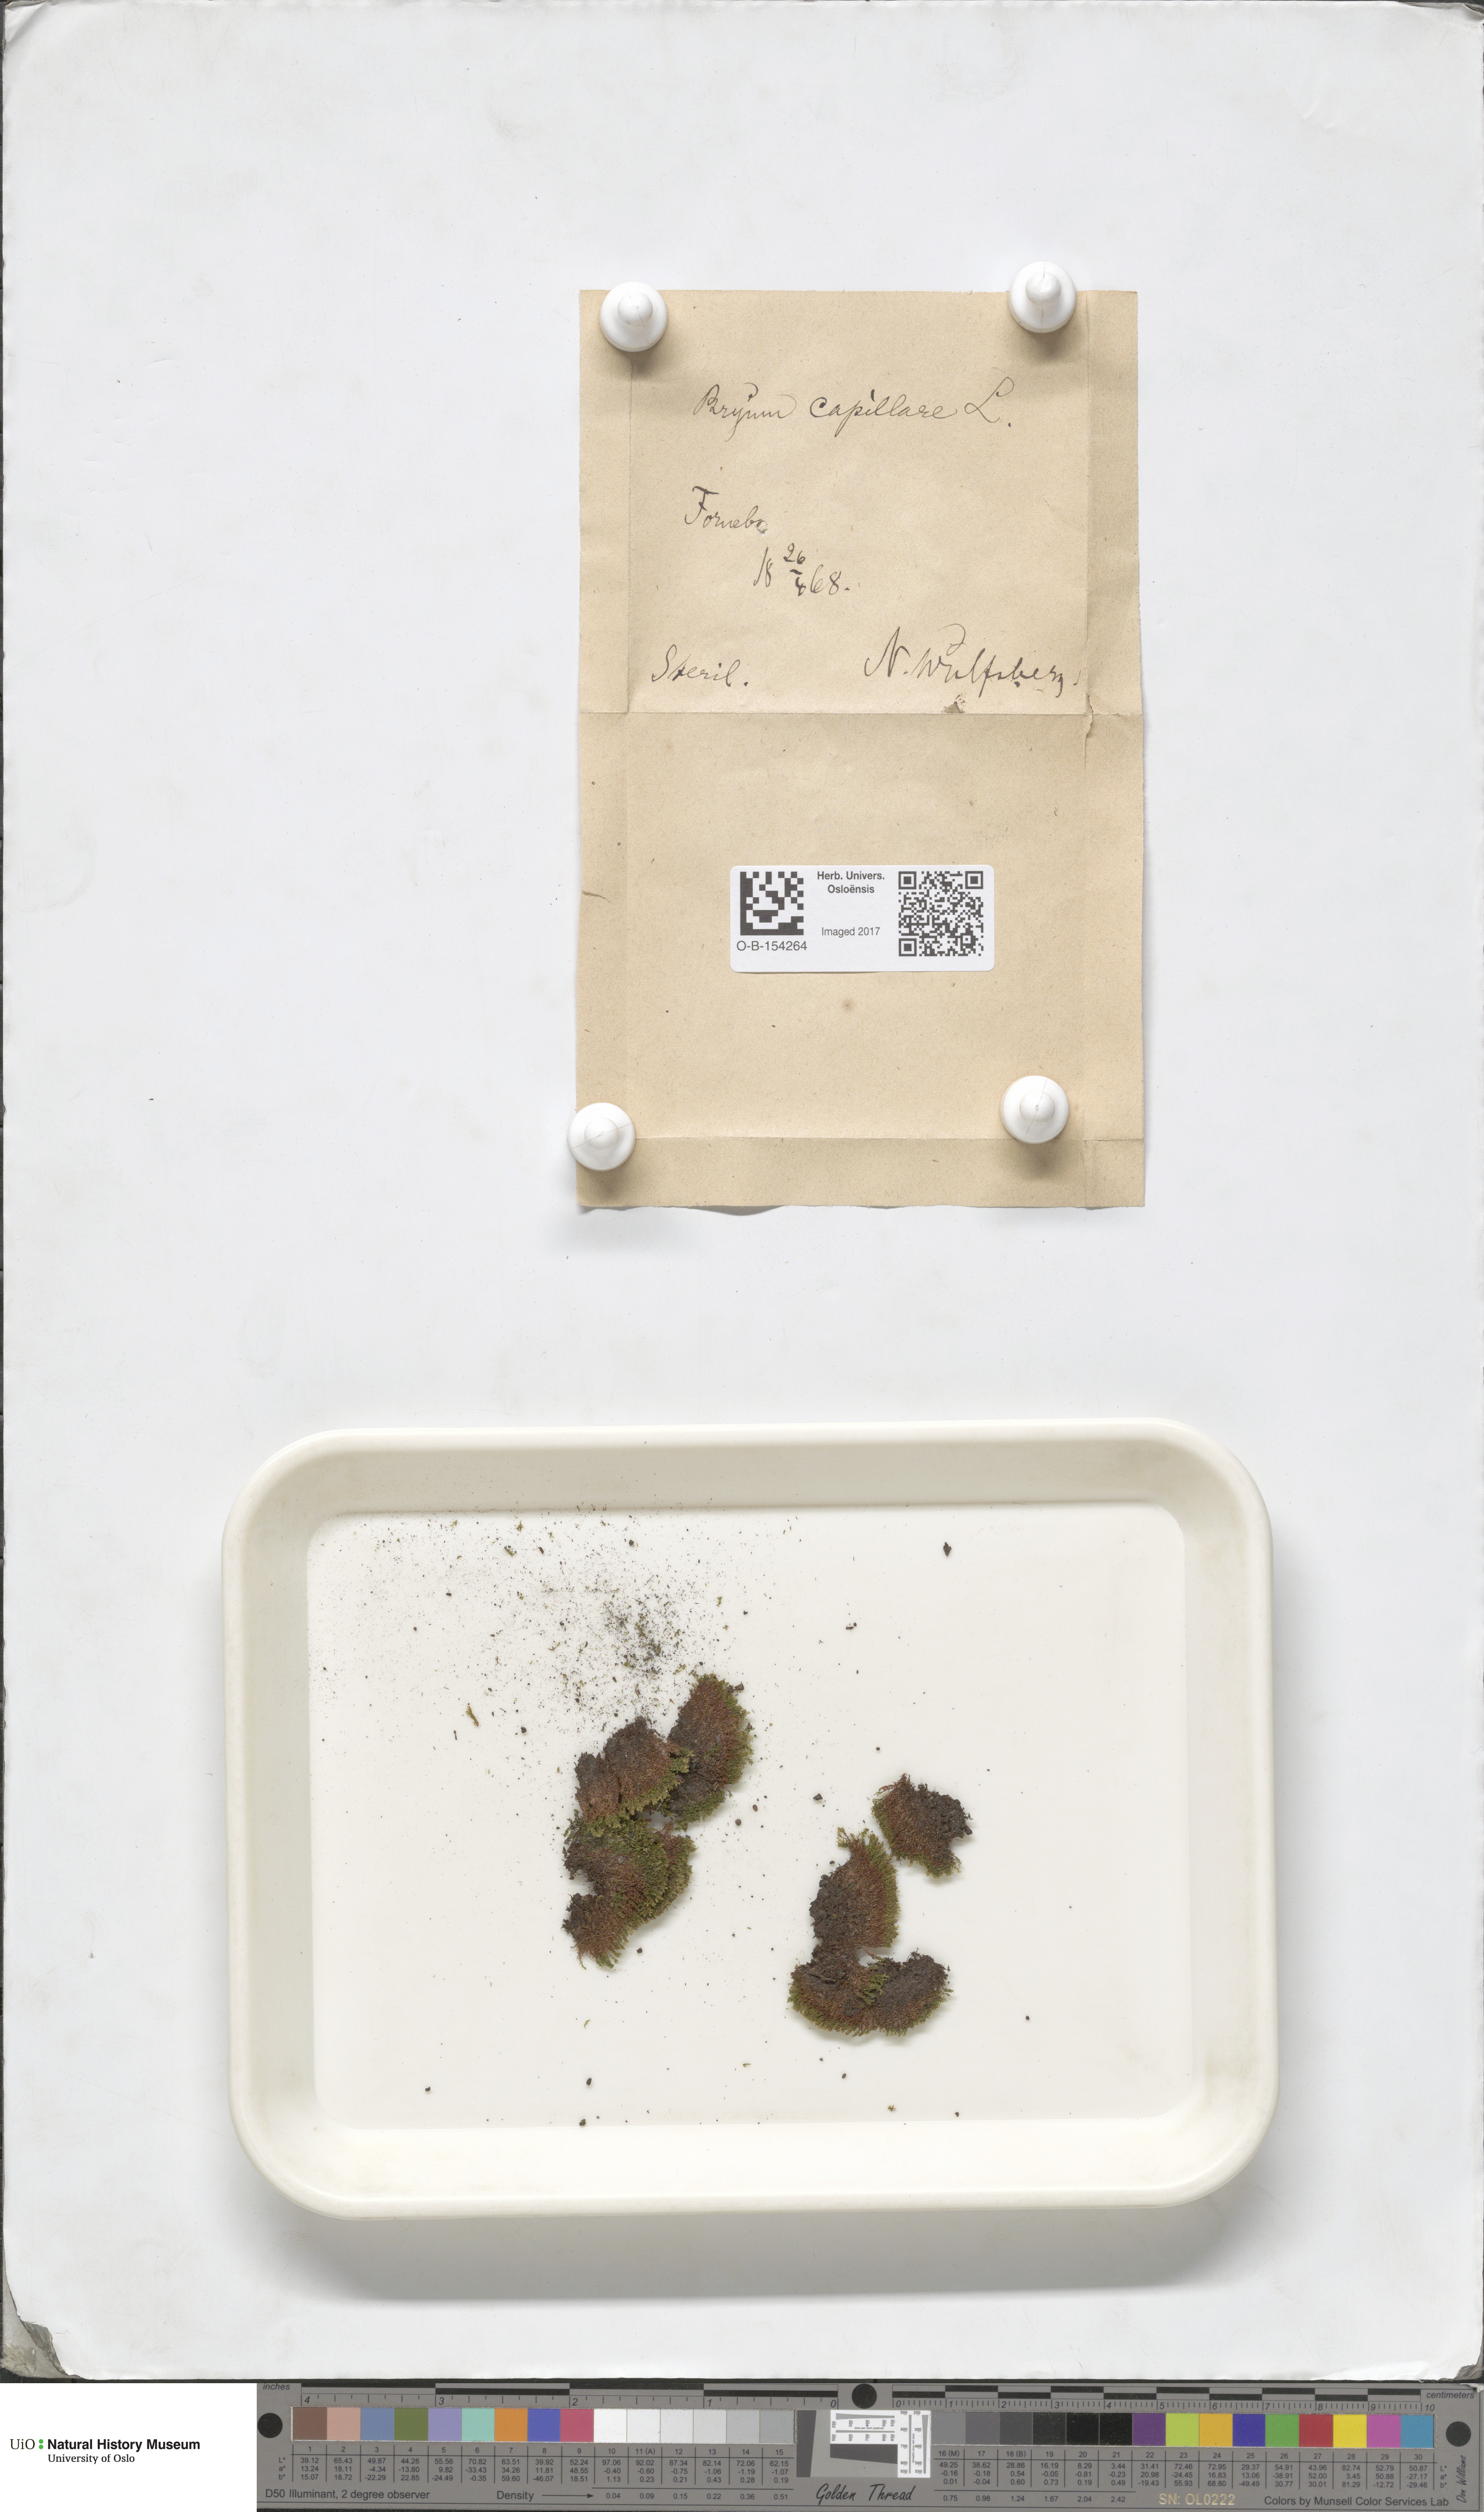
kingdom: Plantae
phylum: Bryophyta
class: Bryopsida
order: Bryales
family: Bryaceae
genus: Rosulabryum
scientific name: Rosulabryum capillare
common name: Capillary thread-moss
